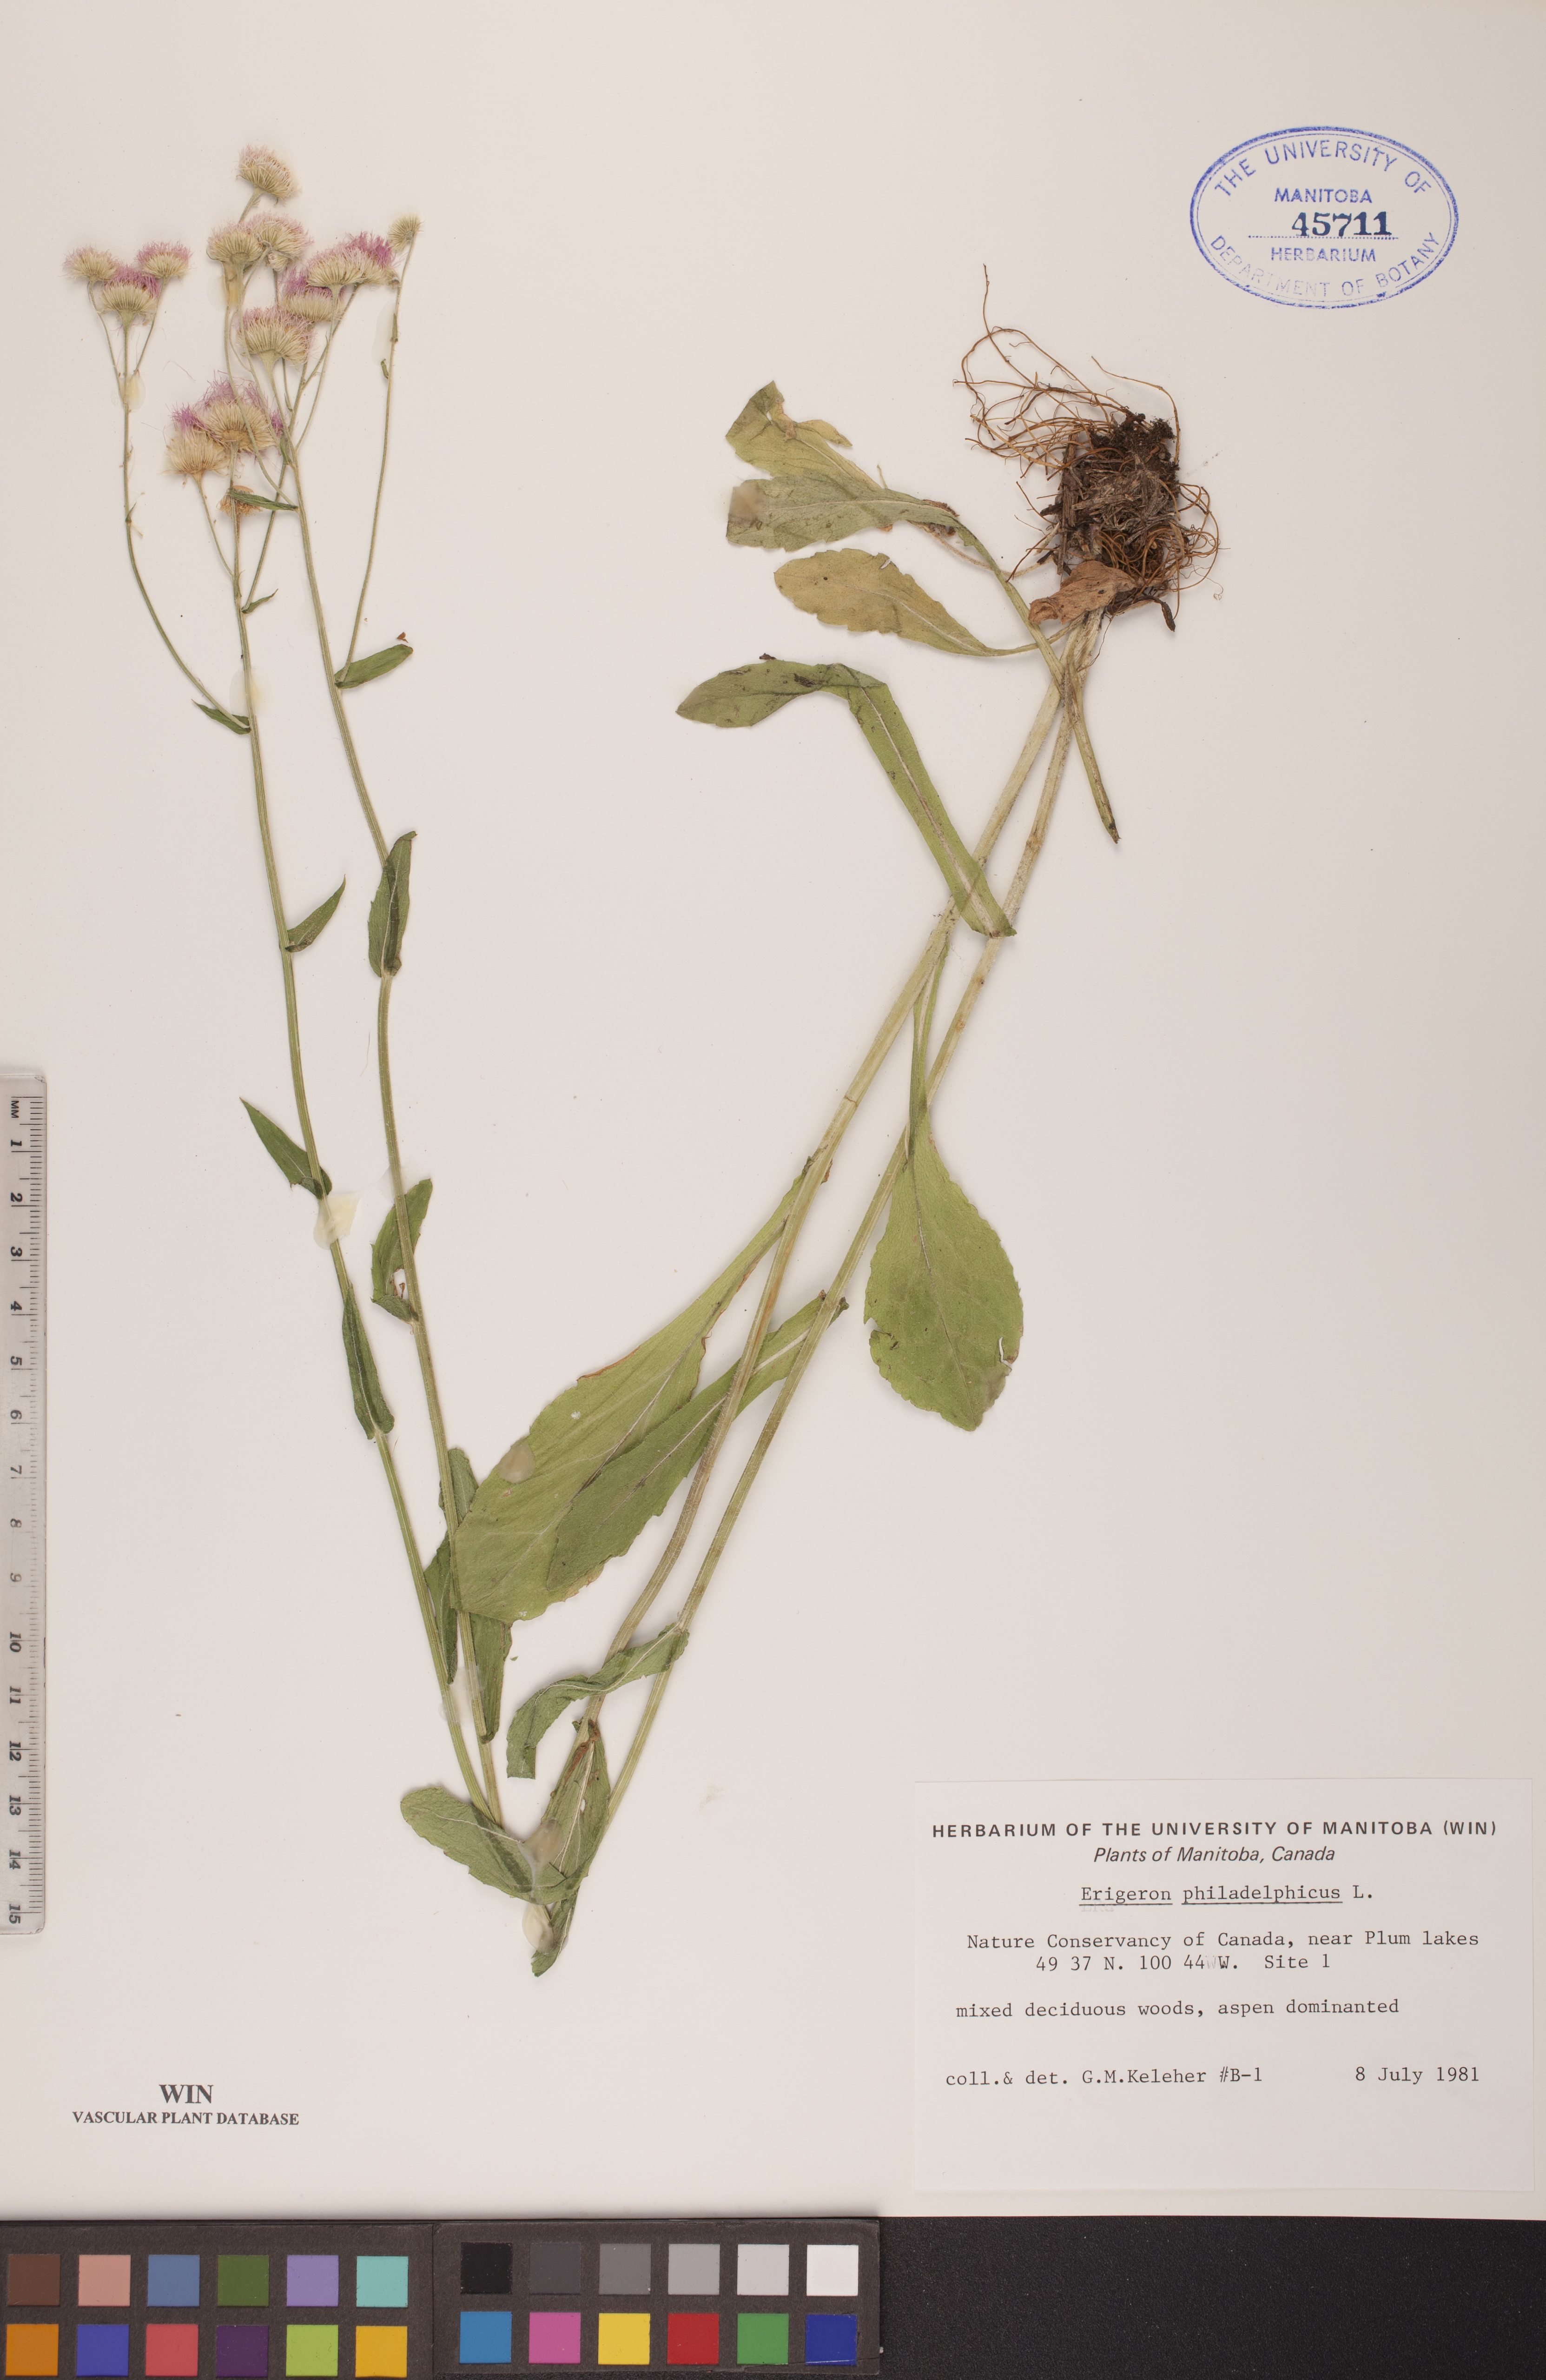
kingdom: Plantae
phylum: Tracheophyta
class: Magnoliopsida
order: Asterales
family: Asteraceae
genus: Erigeron
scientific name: Erigeron philadelphicus
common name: Robin's-plantain
